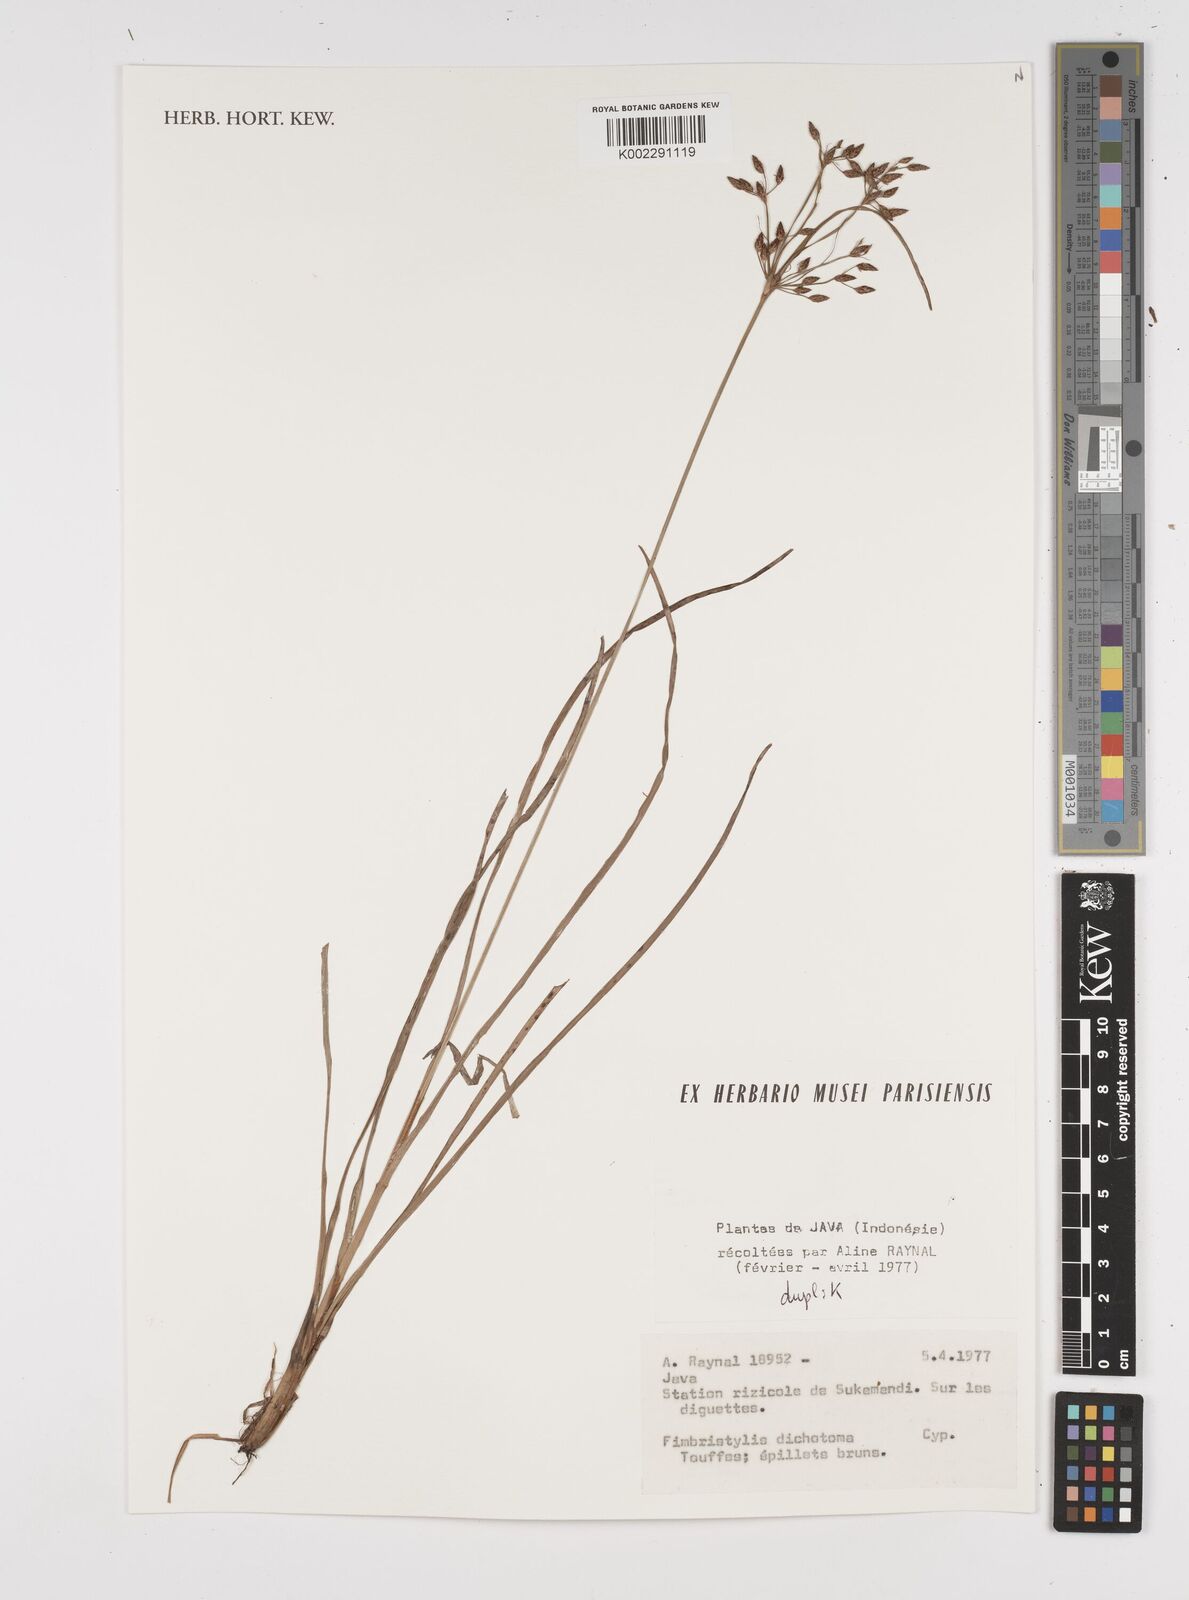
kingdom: Plantae
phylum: Tracheophyta
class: Liliopsida
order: Poales
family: Cyperaceae
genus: Fimbristylis
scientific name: Fimbristylis dichotoma
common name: Forked fimbry
